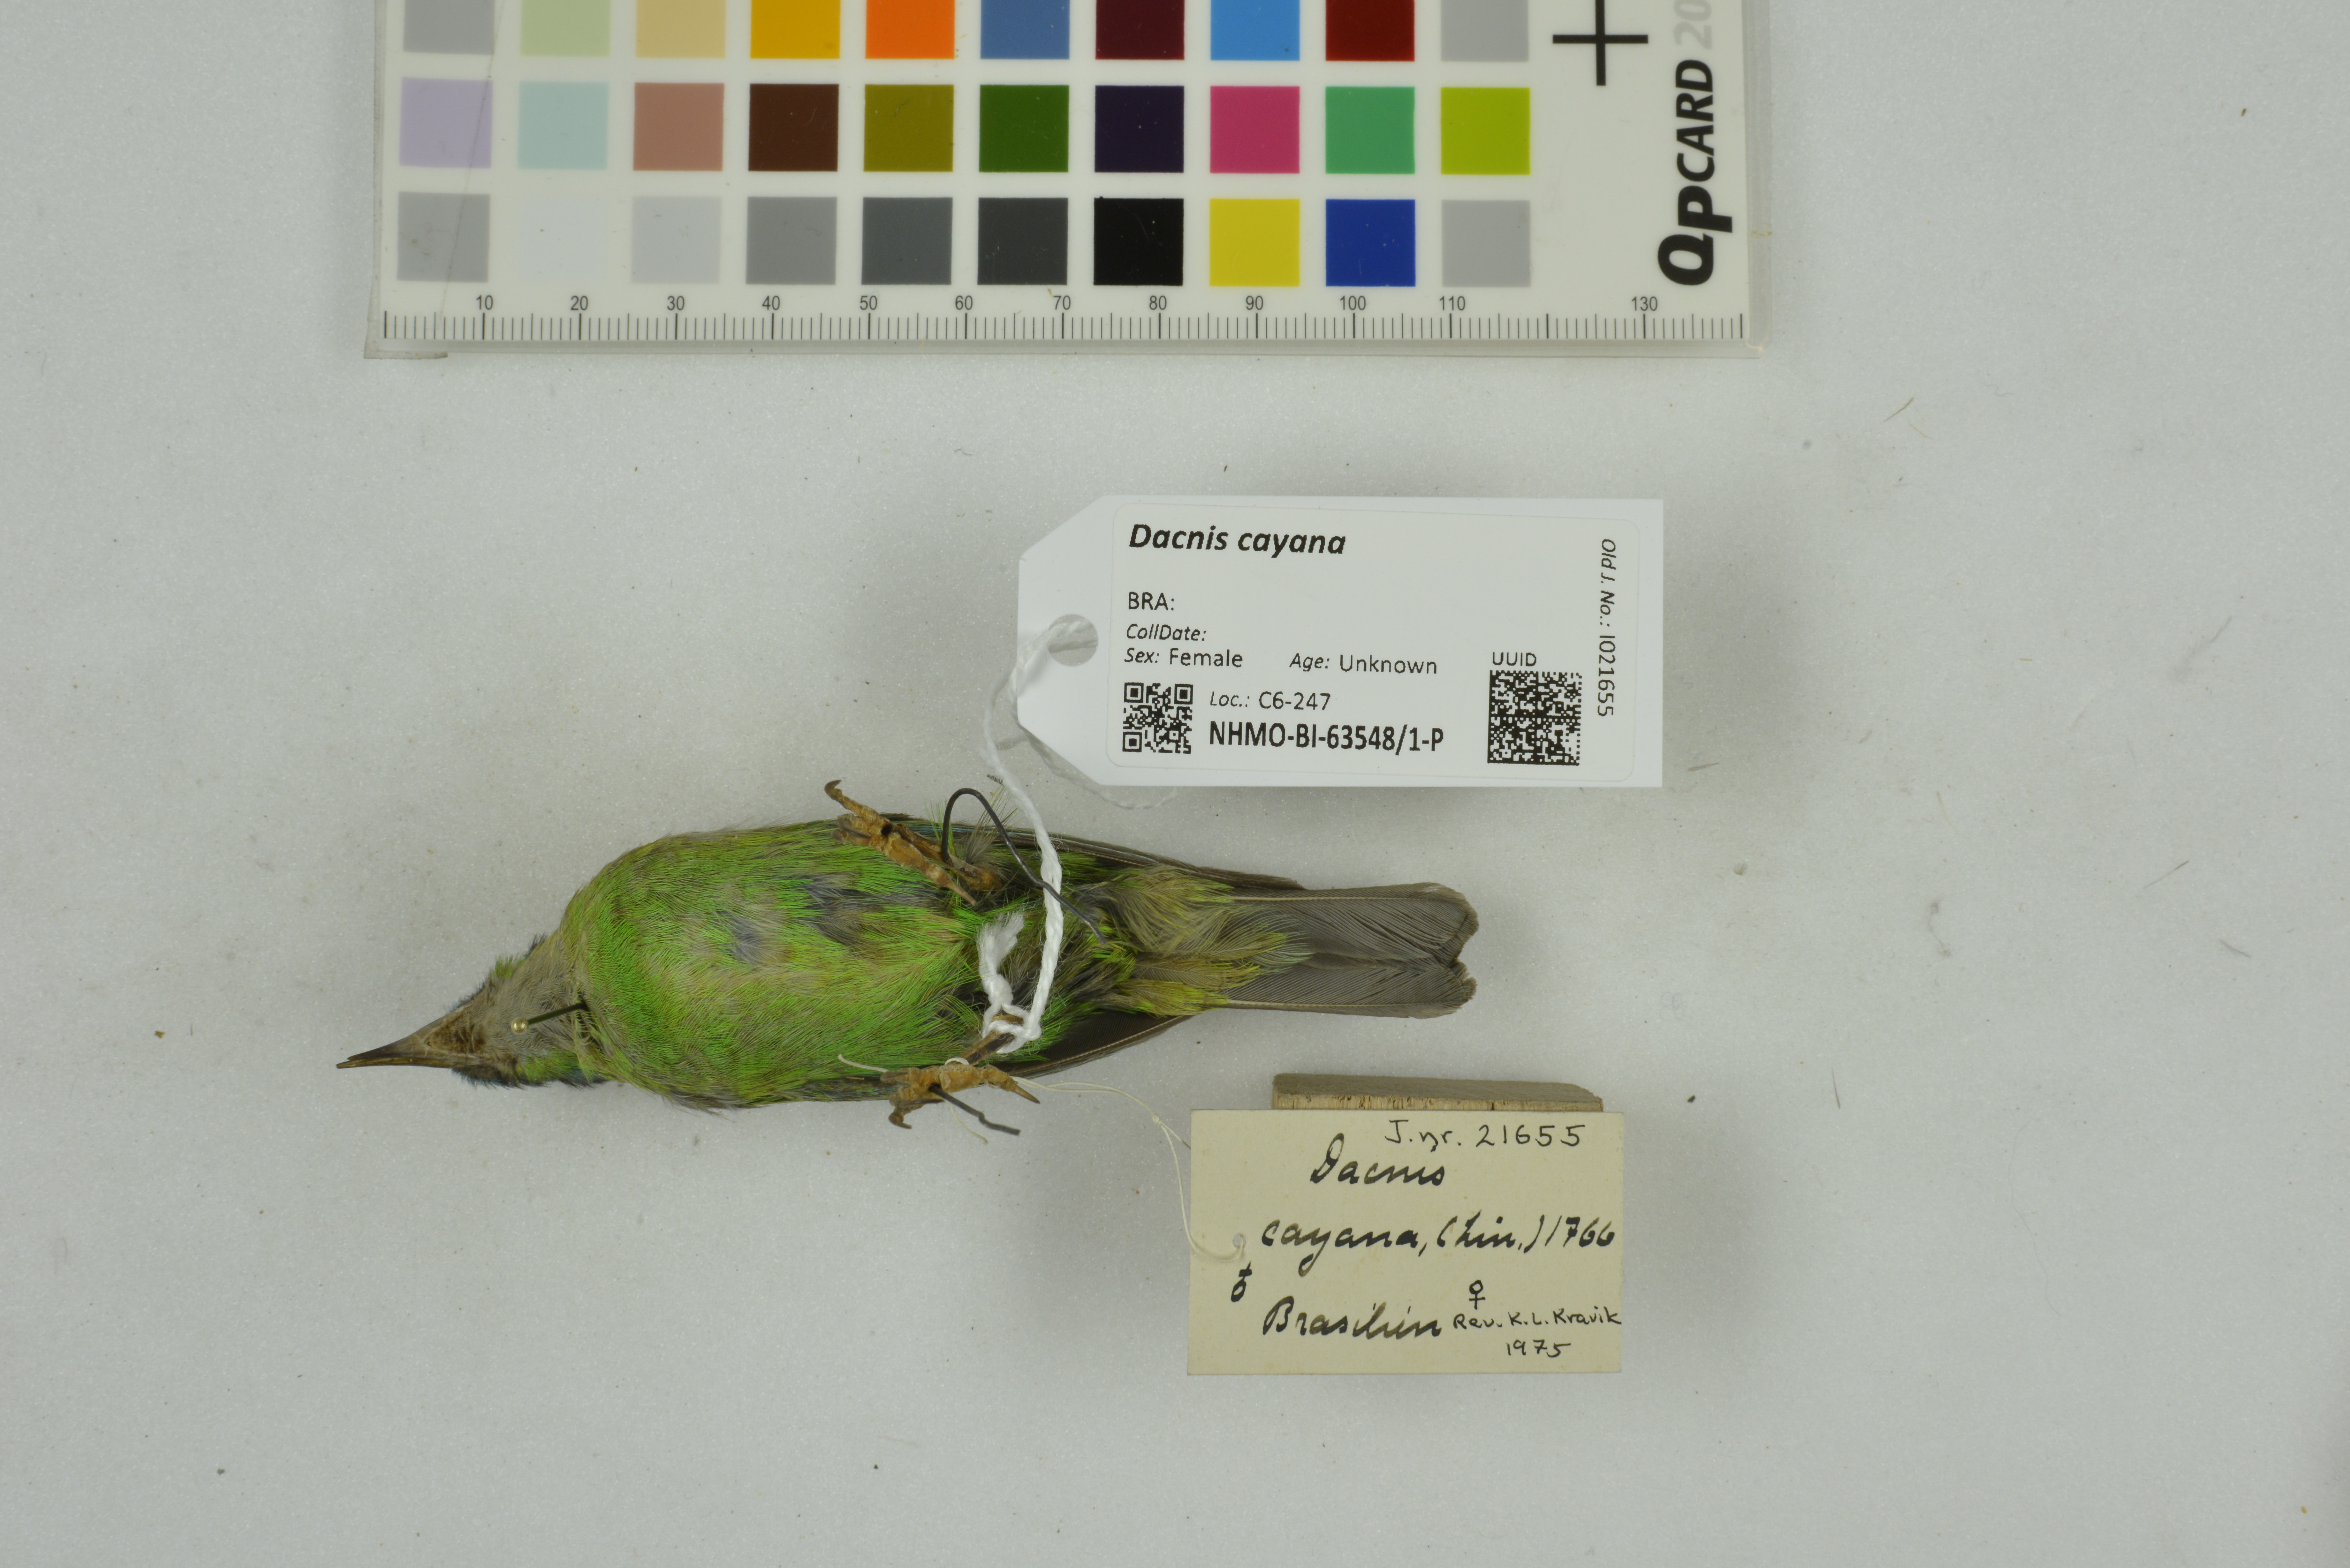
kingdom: Animalia
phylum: Chordata
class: Aves
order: Passeriformes
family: Thraupidae
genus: Dacnis
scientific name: Dacnis cayana
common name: Blue dacnis
